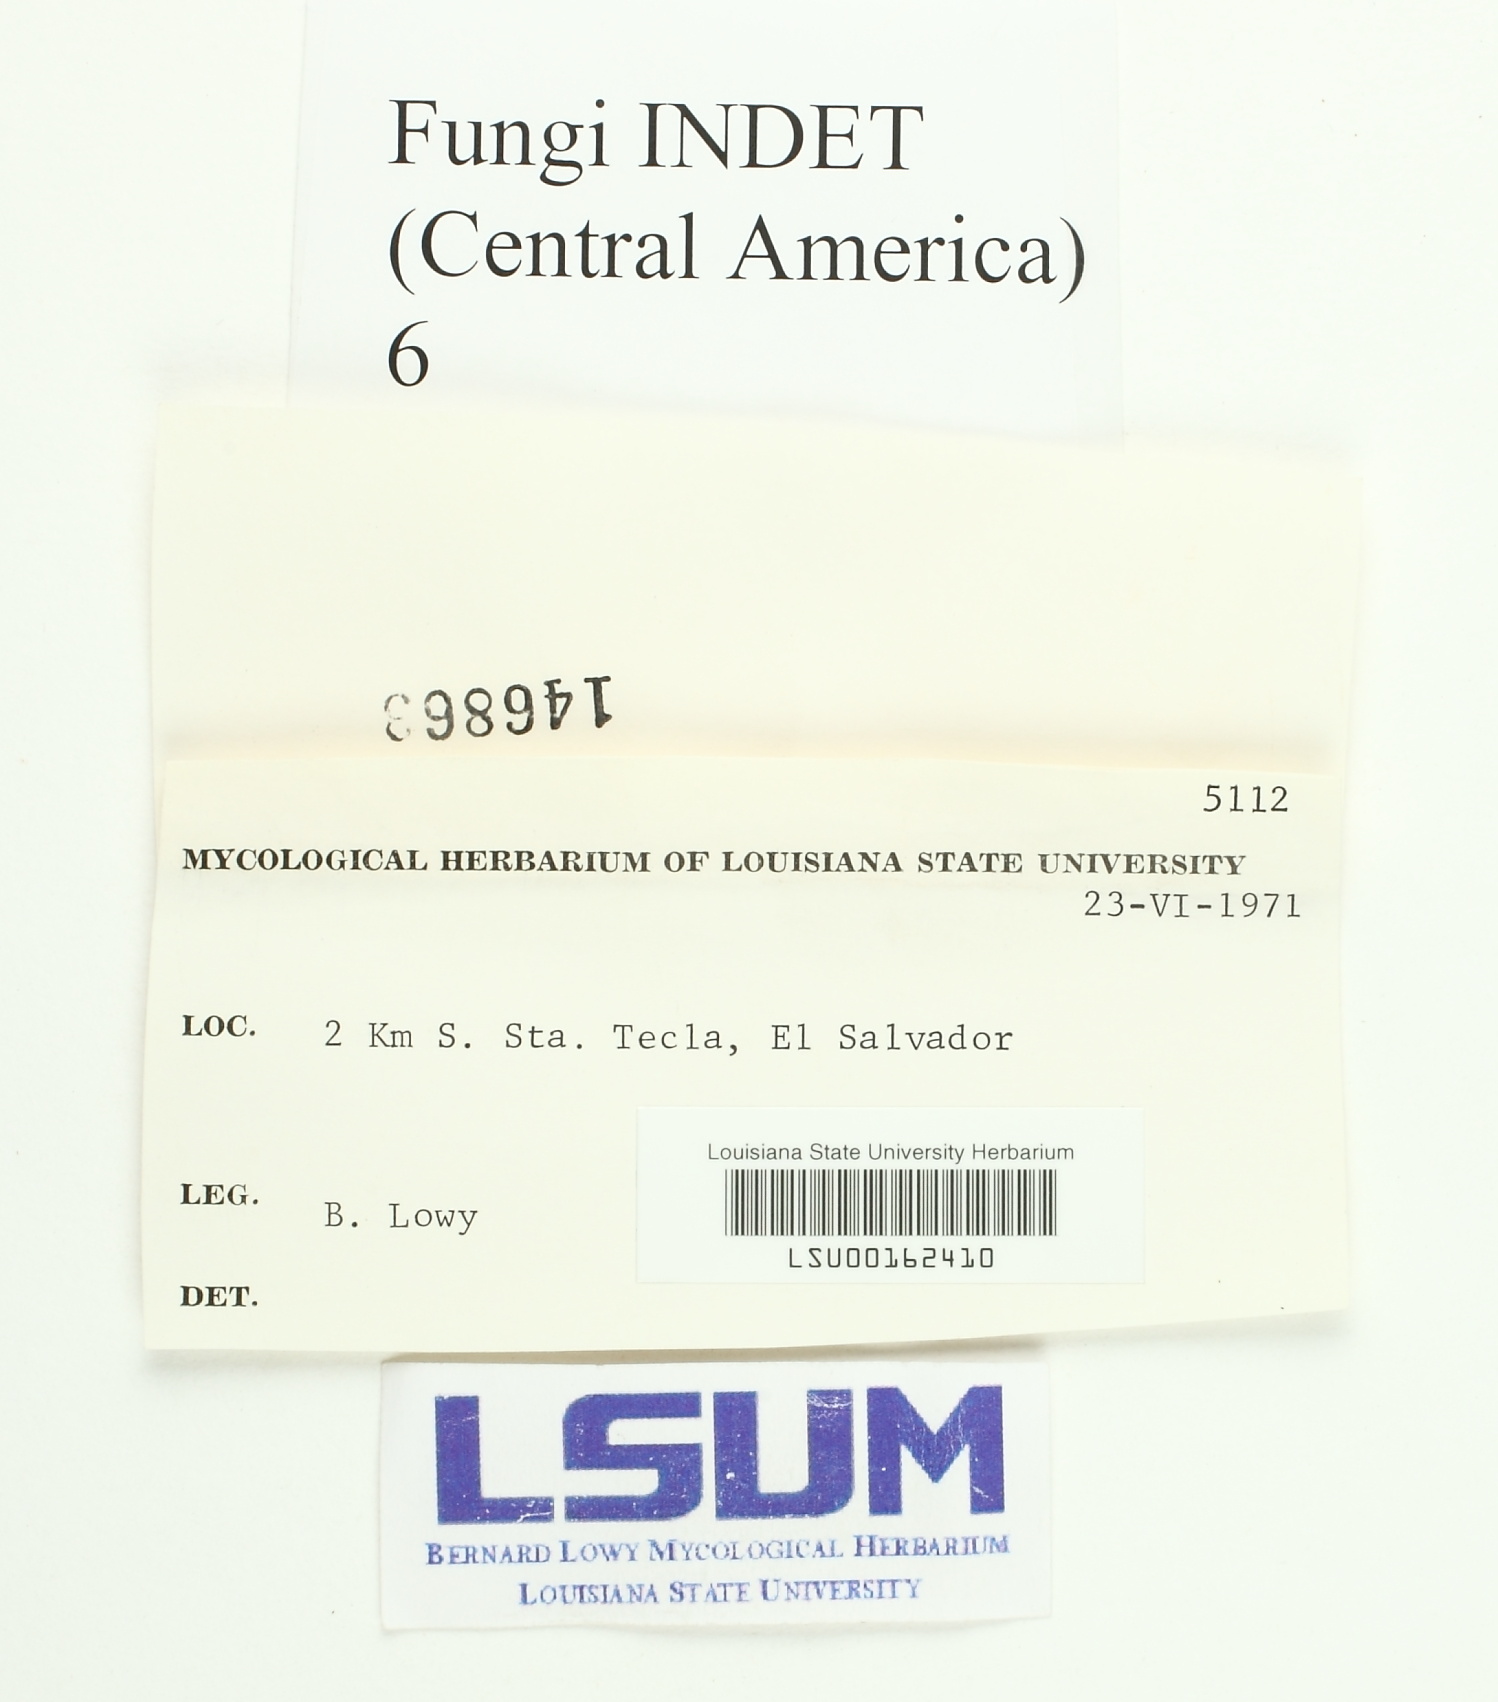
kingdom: Fungi
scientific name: Fungi
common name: Fungi
